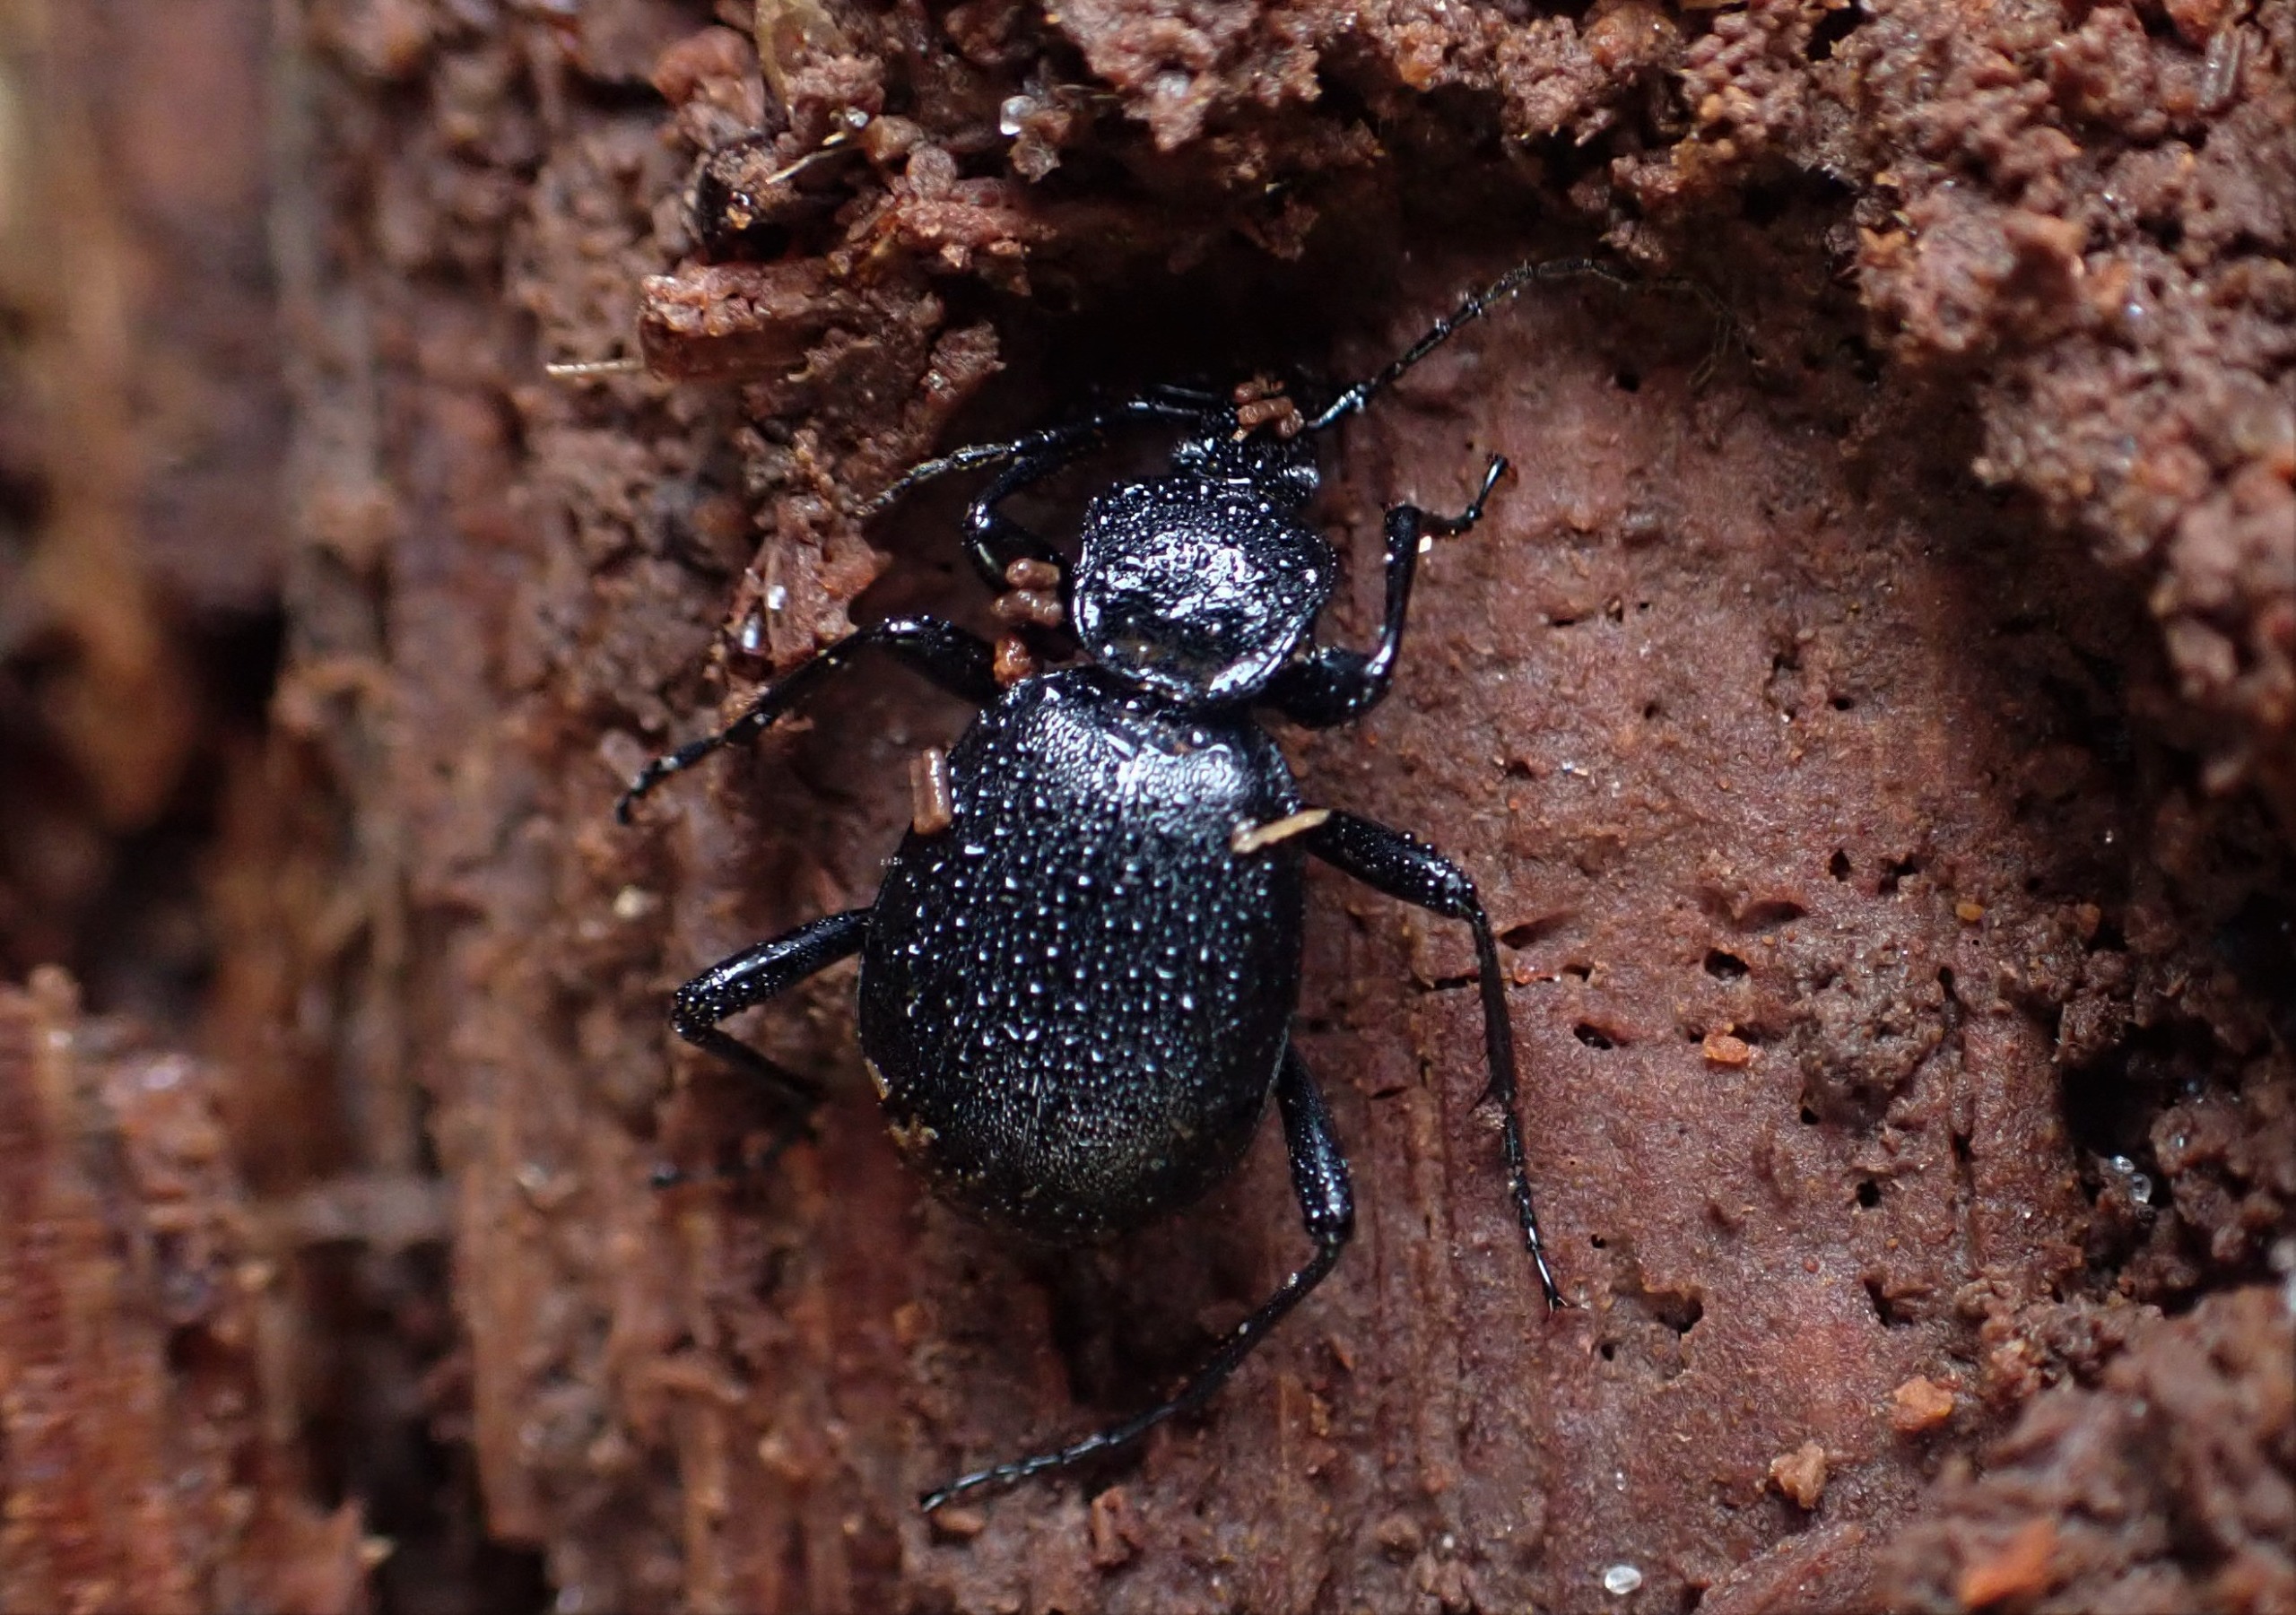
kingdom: Animalia
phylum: Arthropoda
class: Insecta
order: Coleoptera
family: Carabidae
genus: Cychrus
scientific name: Cychrus caraboides
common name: Sneglerøver
